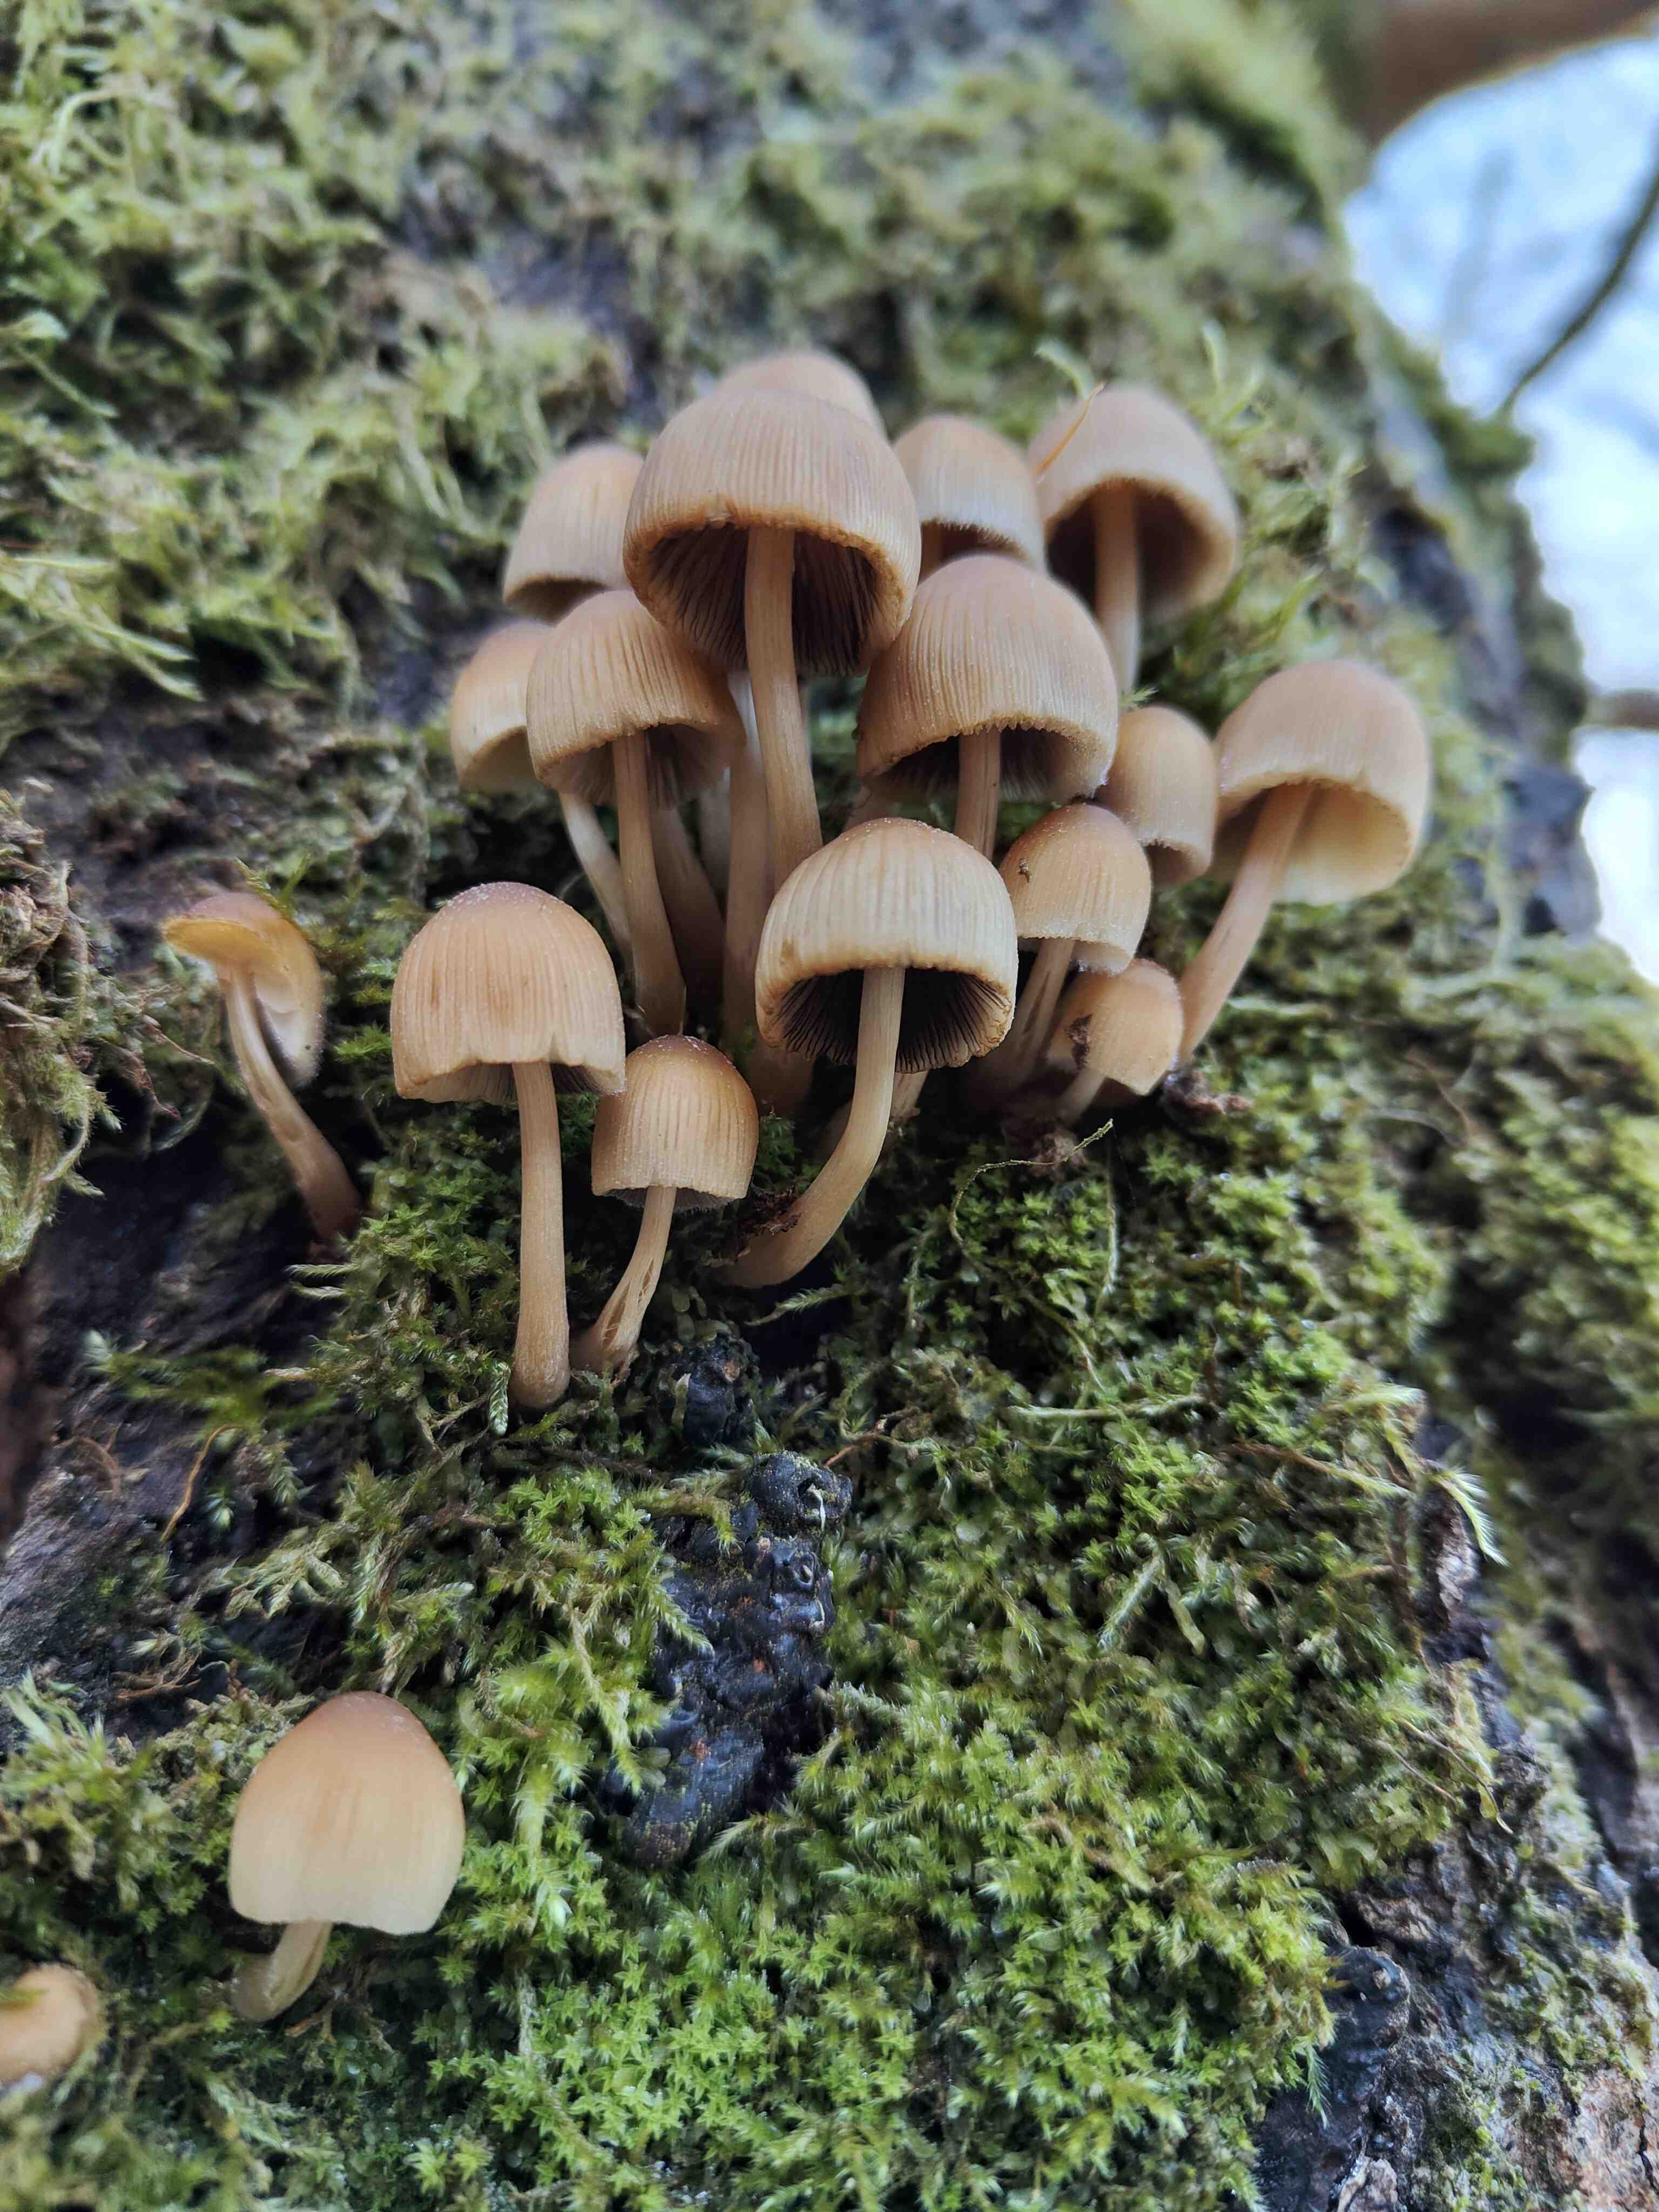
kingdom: Fungi
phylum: Basidiomycota
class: Agaricomycetes
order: Agaricales
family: Psathyrellaceae
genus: Coprinellus
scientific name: Coprinellus micaceus
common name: glimmer-blækhat
